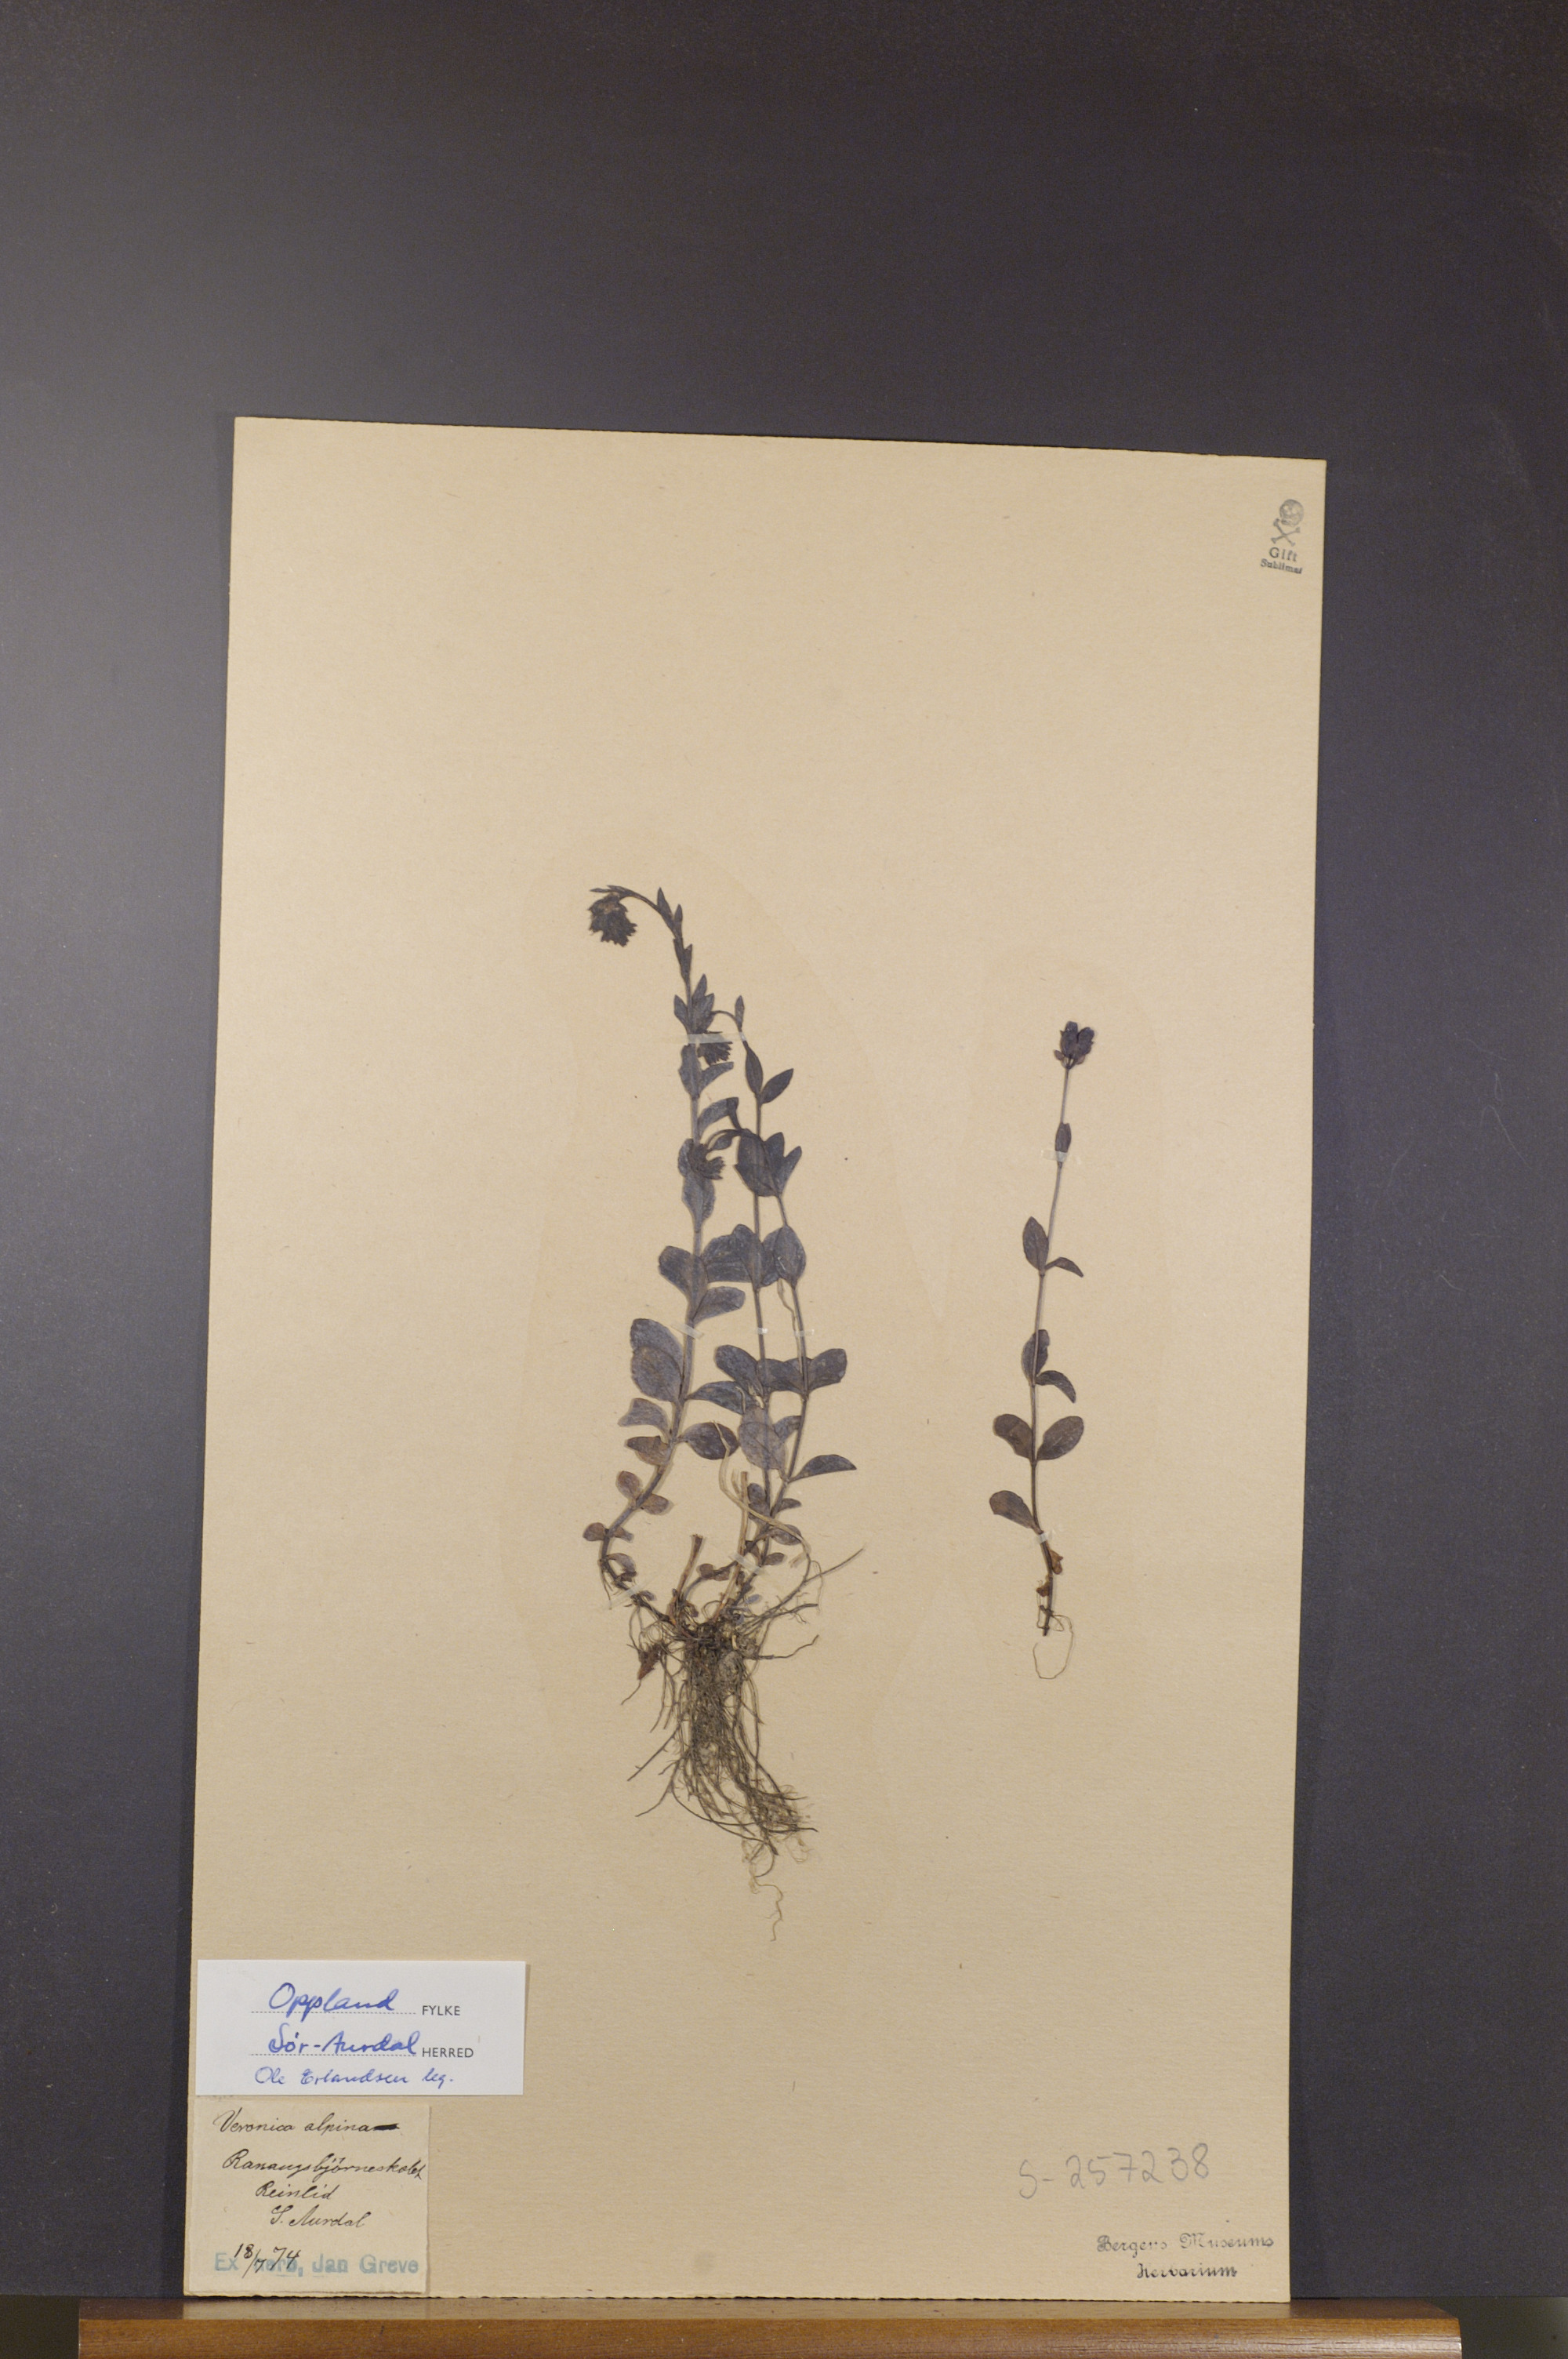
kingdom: Plantae
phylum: Tracheophyta
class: Magnoliopsida
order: Lamiales
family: Plantaginaceae
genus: Veronica
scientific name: Veronica alpina
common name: Alpine speedwell
